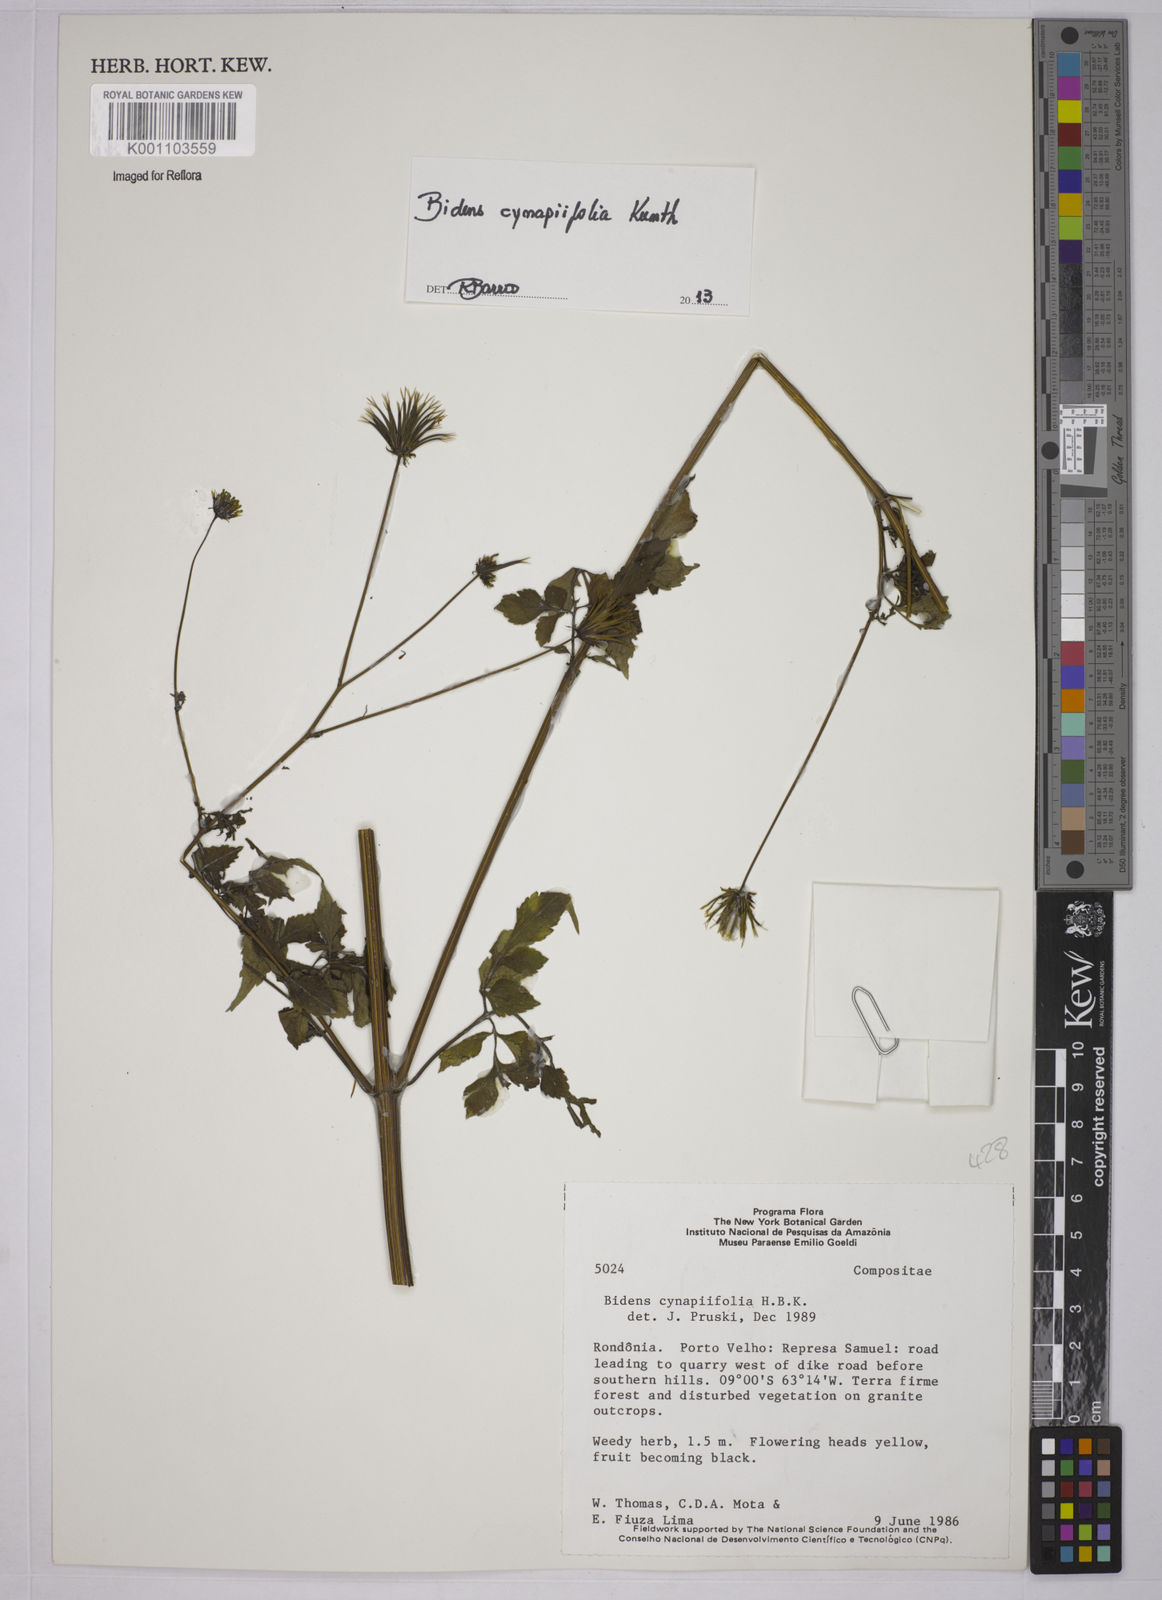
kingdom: Plantae
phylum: Tracheophyta
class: Magnoliopsida
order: Asterales
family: Asteraceae
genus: Bidens
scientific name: Bidens cynapiifolia
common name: Beggar's tick
